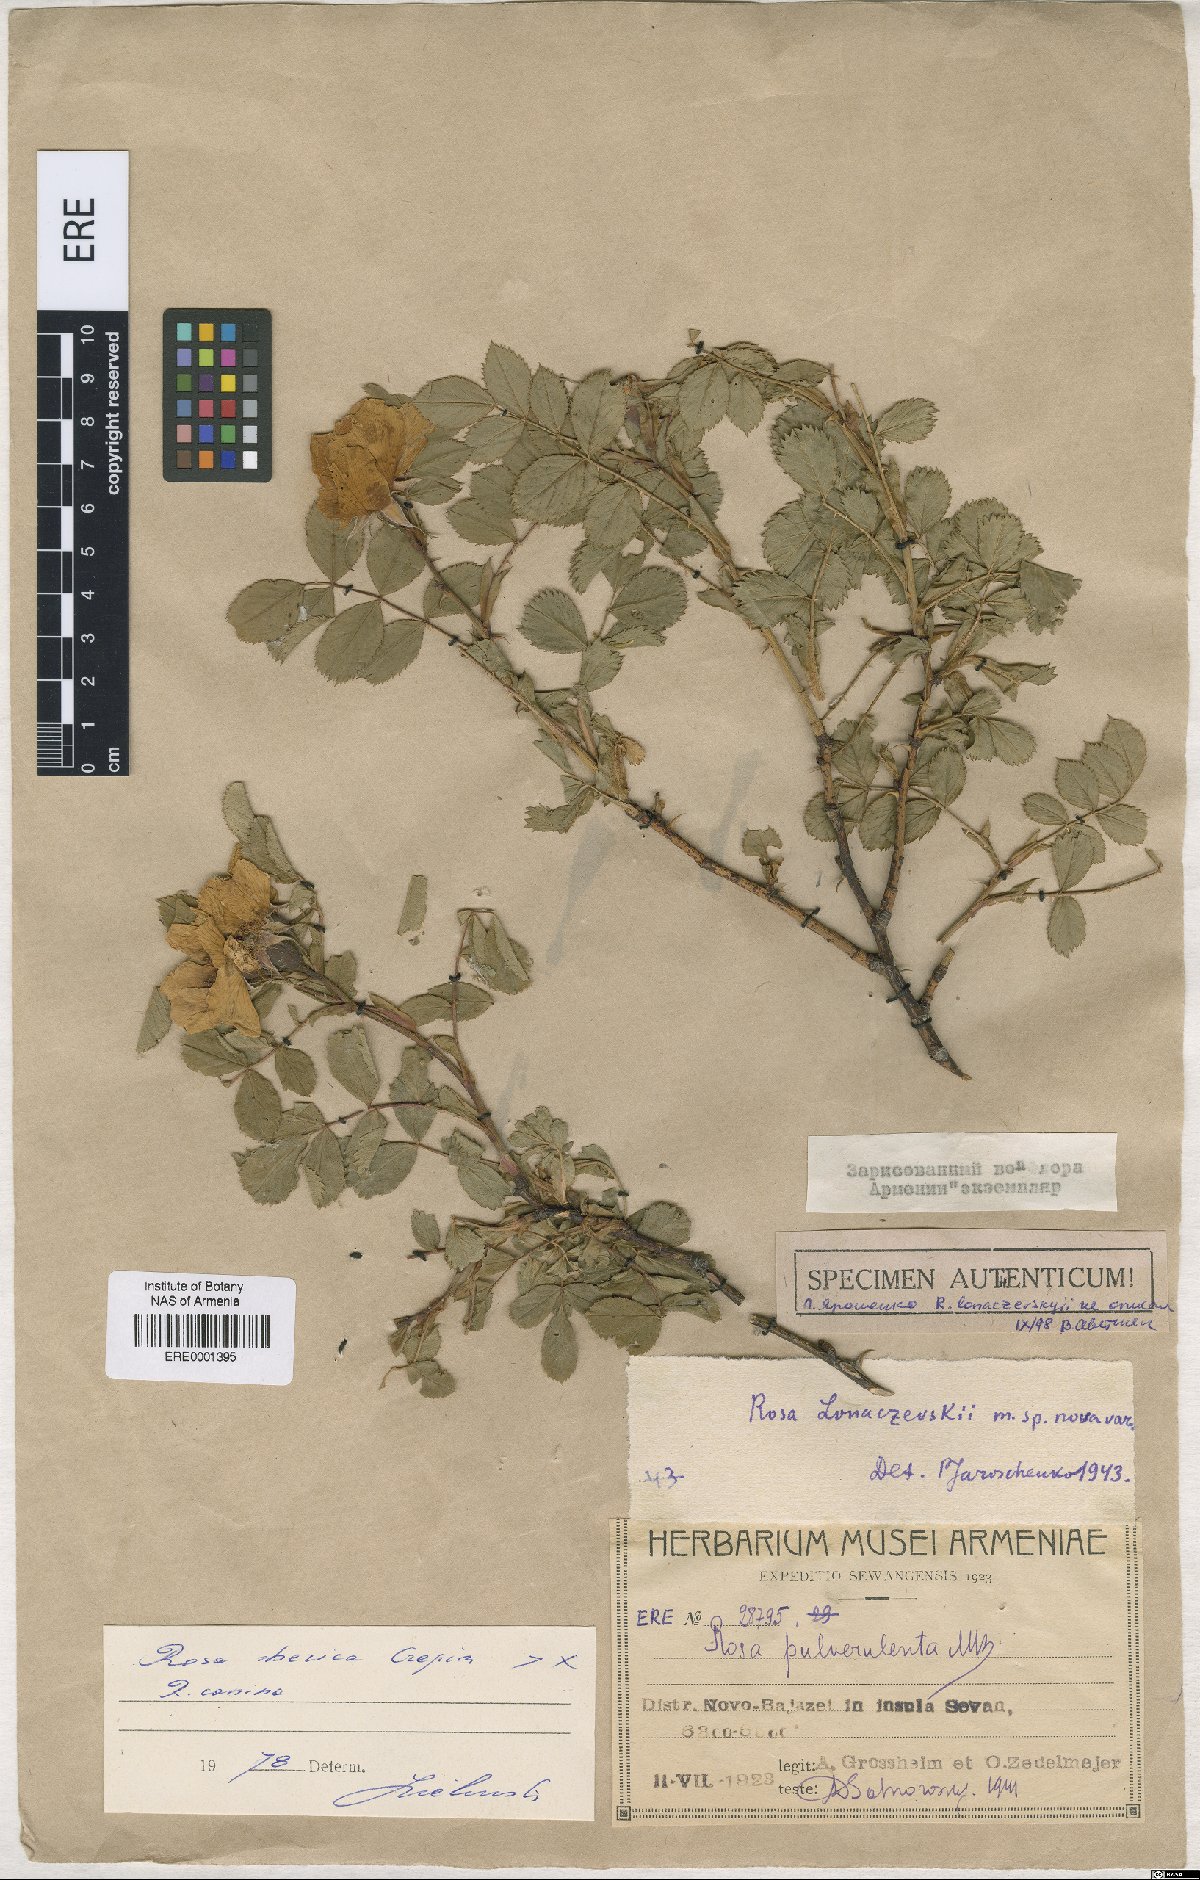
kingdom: Plantae
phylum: Tracheophyta
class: Magnoliopsida
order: Rosales
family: Rosaceae
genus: Rosa
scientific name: Rosa canina
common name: Dog rose
